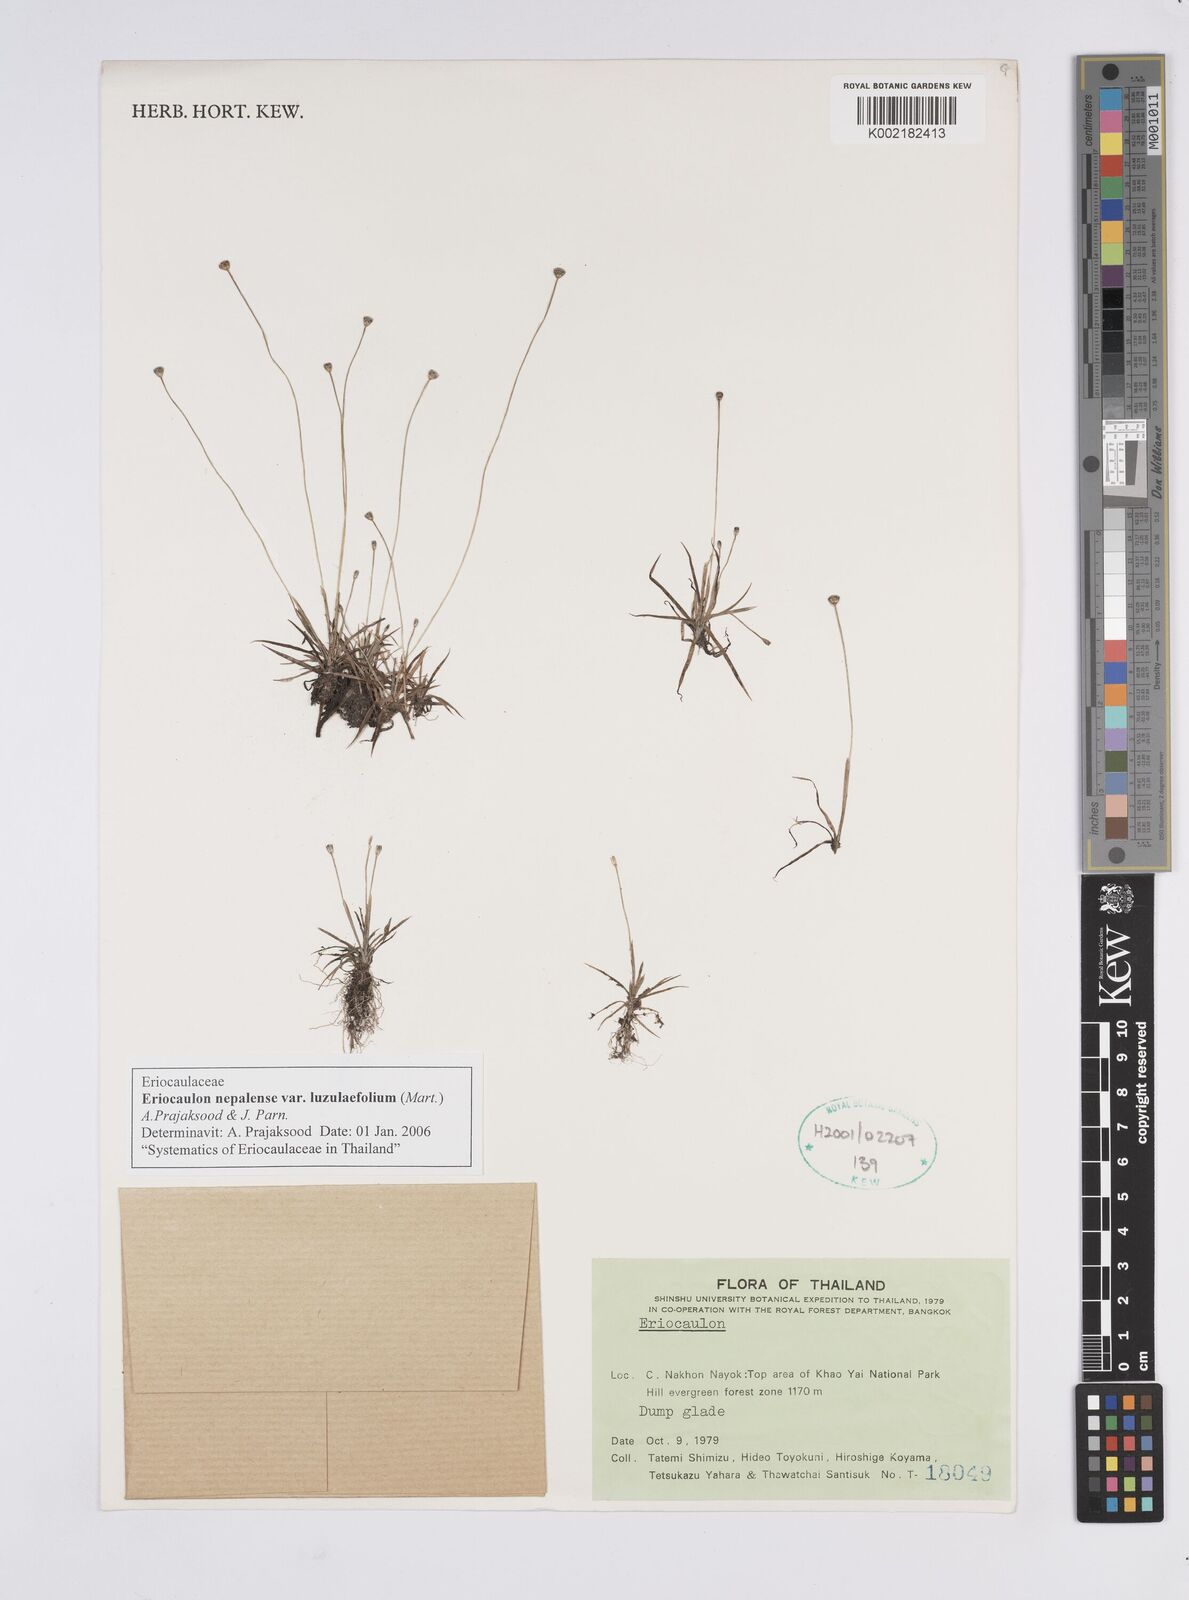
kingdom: Plantae
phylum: Tracheophyta
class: Liliopsida
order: Poales
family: Eriocaulaceae
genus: Eriocaulon
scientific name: Eriocaulon nepalense
